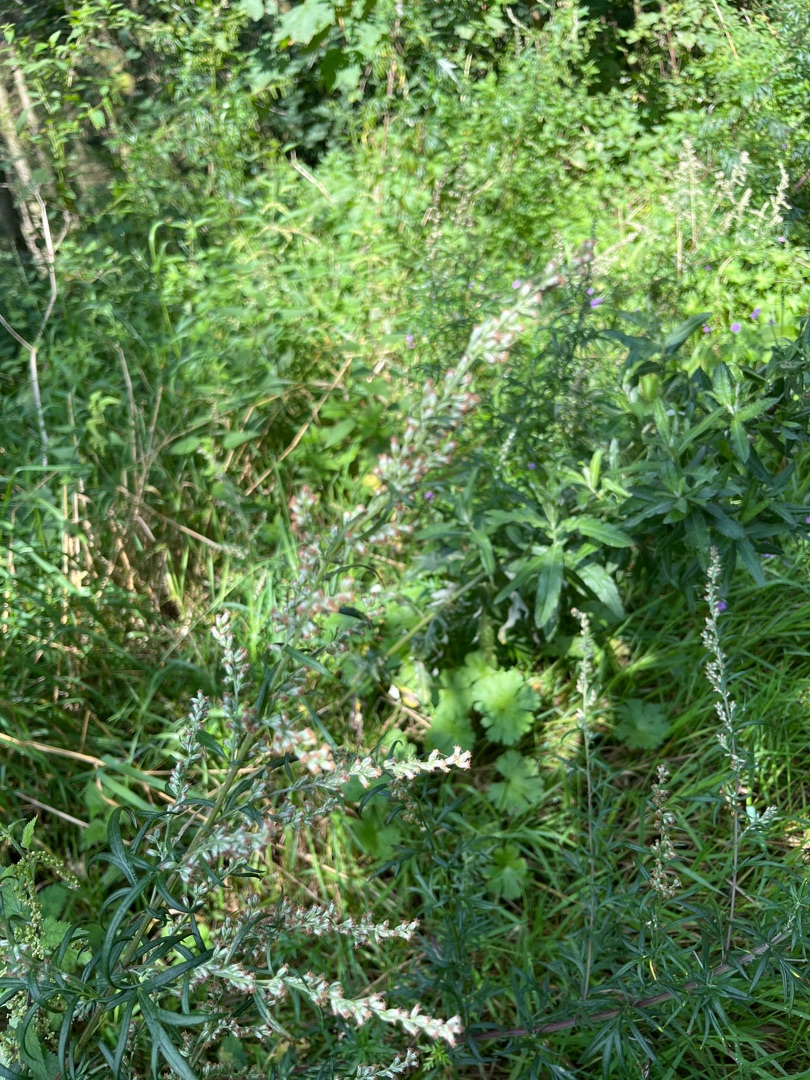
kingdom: Plantae
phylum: Tracheophyta
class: Magnoliopsida
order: Asterales
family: Asteraceae
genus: Artemisia
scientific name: Artemisia vulgaris
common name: Grå-bynke
